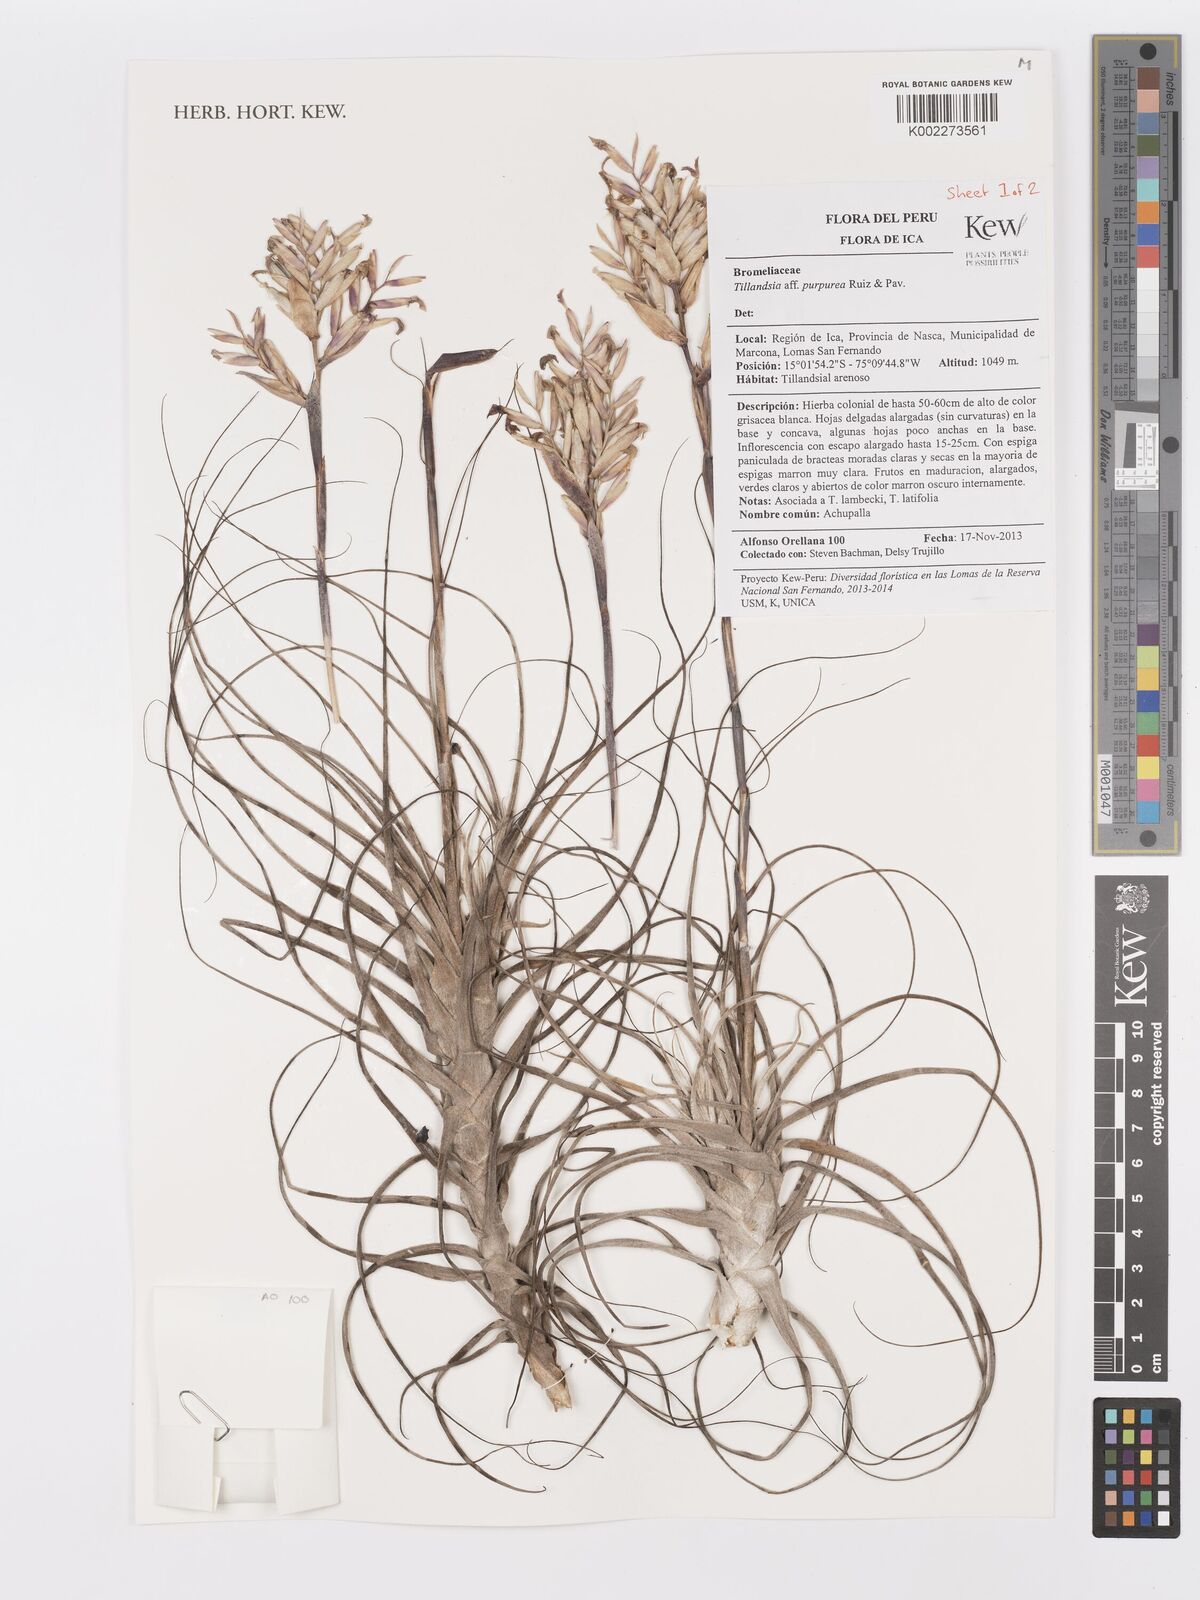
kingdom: Plantae
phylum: Tracheophyta
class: Liliopsida
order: Poales
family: Bromeliaceae
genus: Tillandsia
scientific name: Tillandsia purpurea
